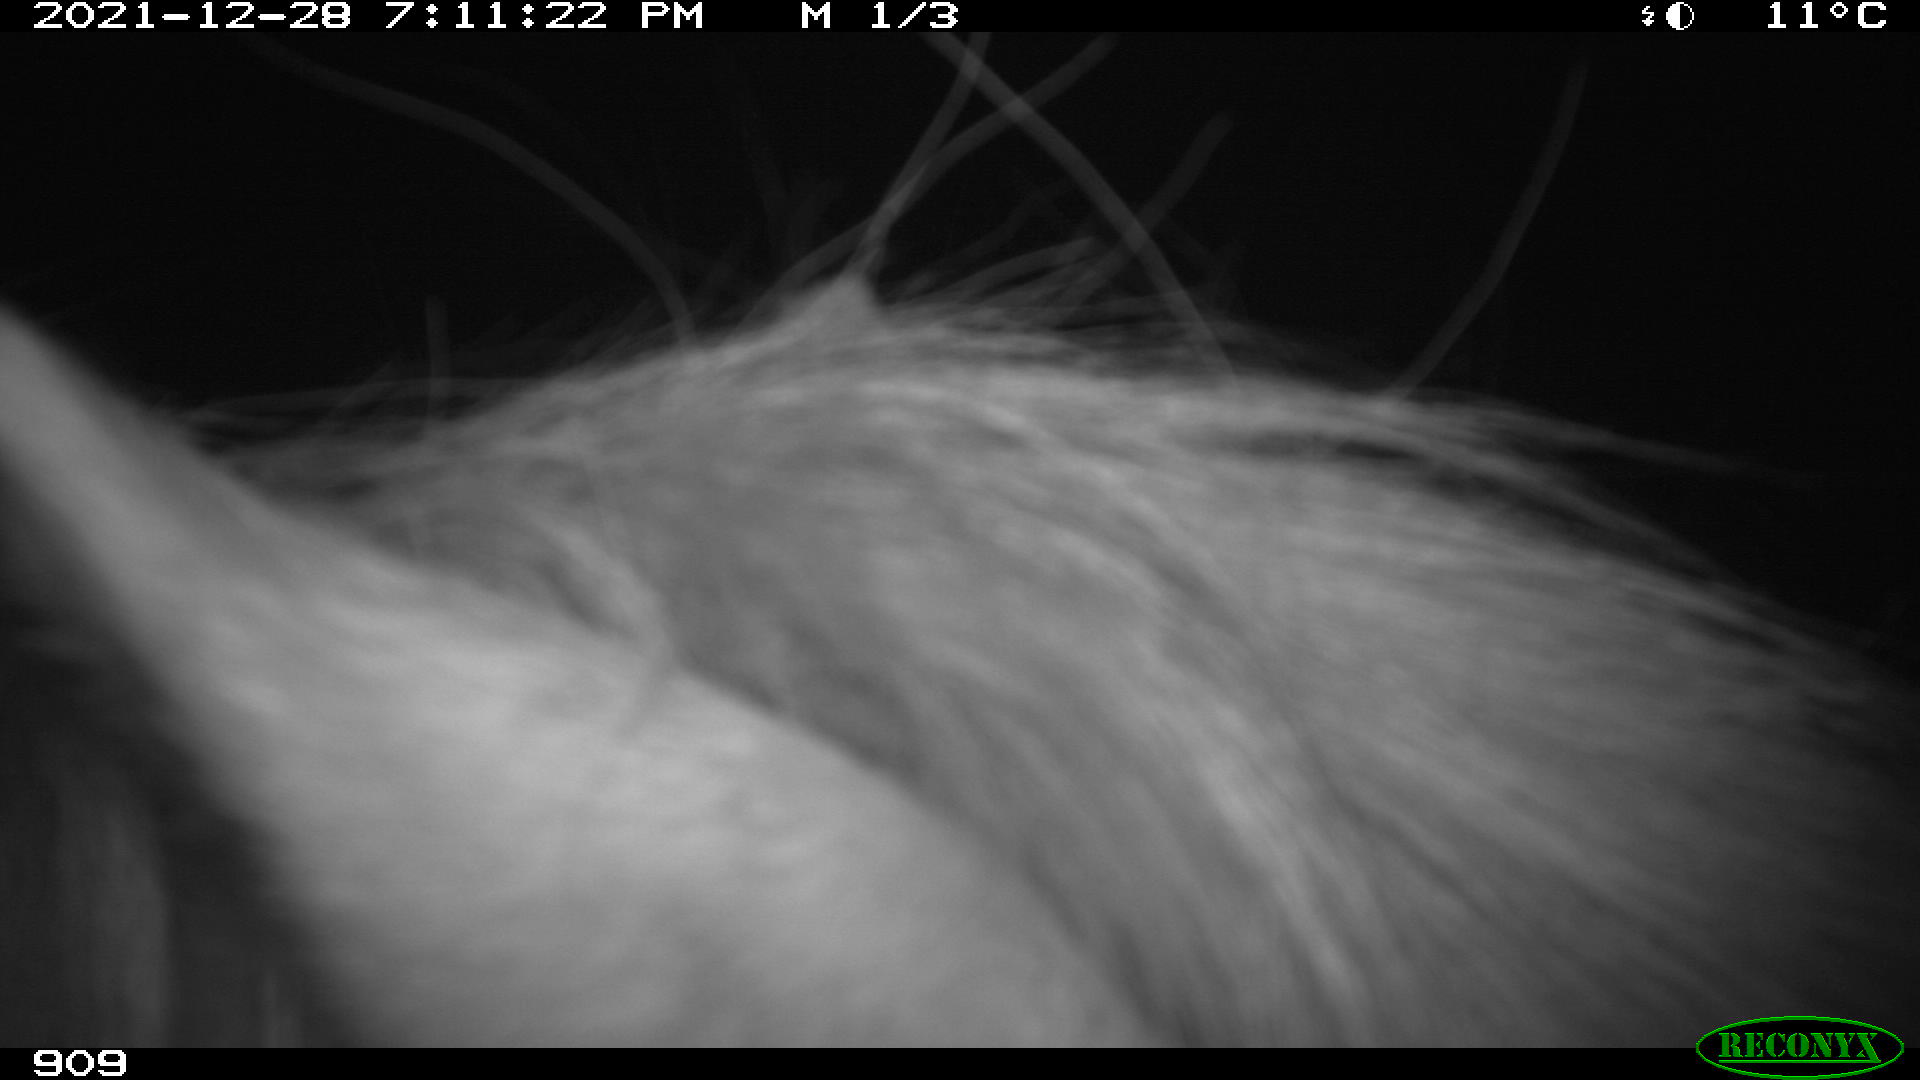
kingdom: Animalia
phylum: Chordata
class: Mammalia
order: Perissodactyla
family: Equidae
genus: Equus
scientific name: Equus caballus
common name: Horse
